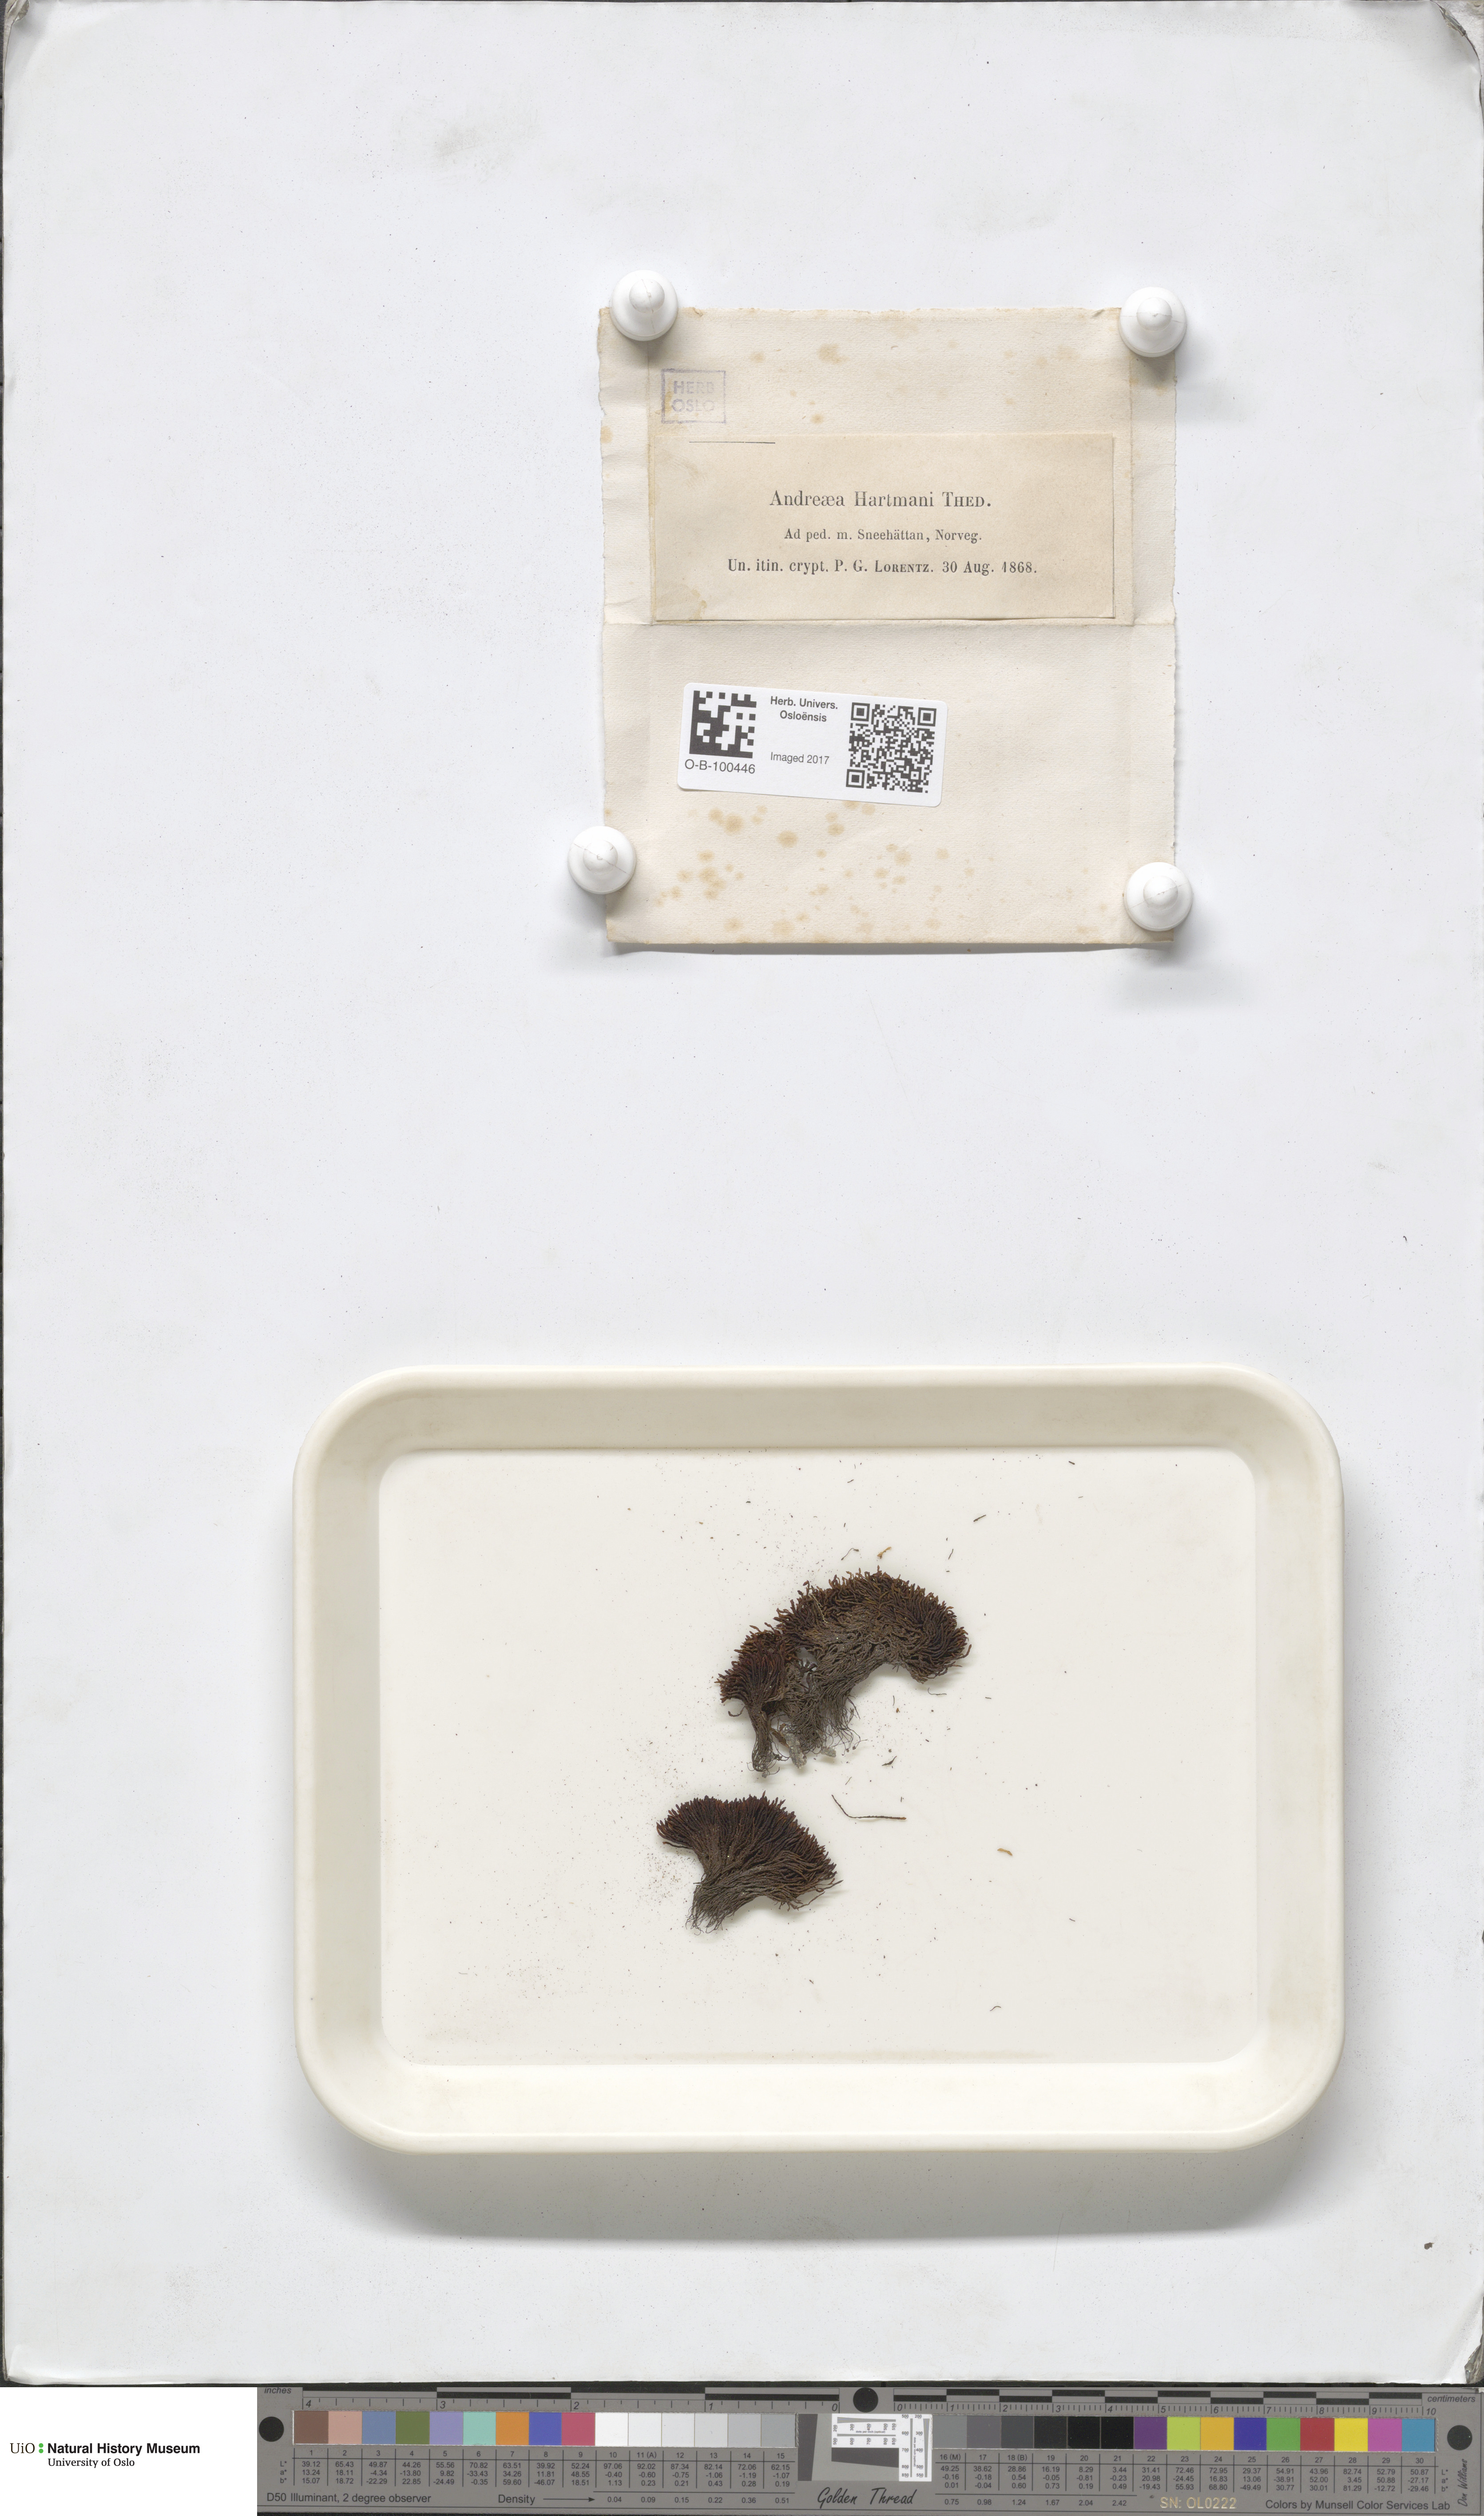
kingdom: Plantae
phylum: Bryophyta
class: Andreaeopsida
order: Andreaeales
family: Andreaeaceae
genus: Andreaea
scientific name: Andreaea alpina
